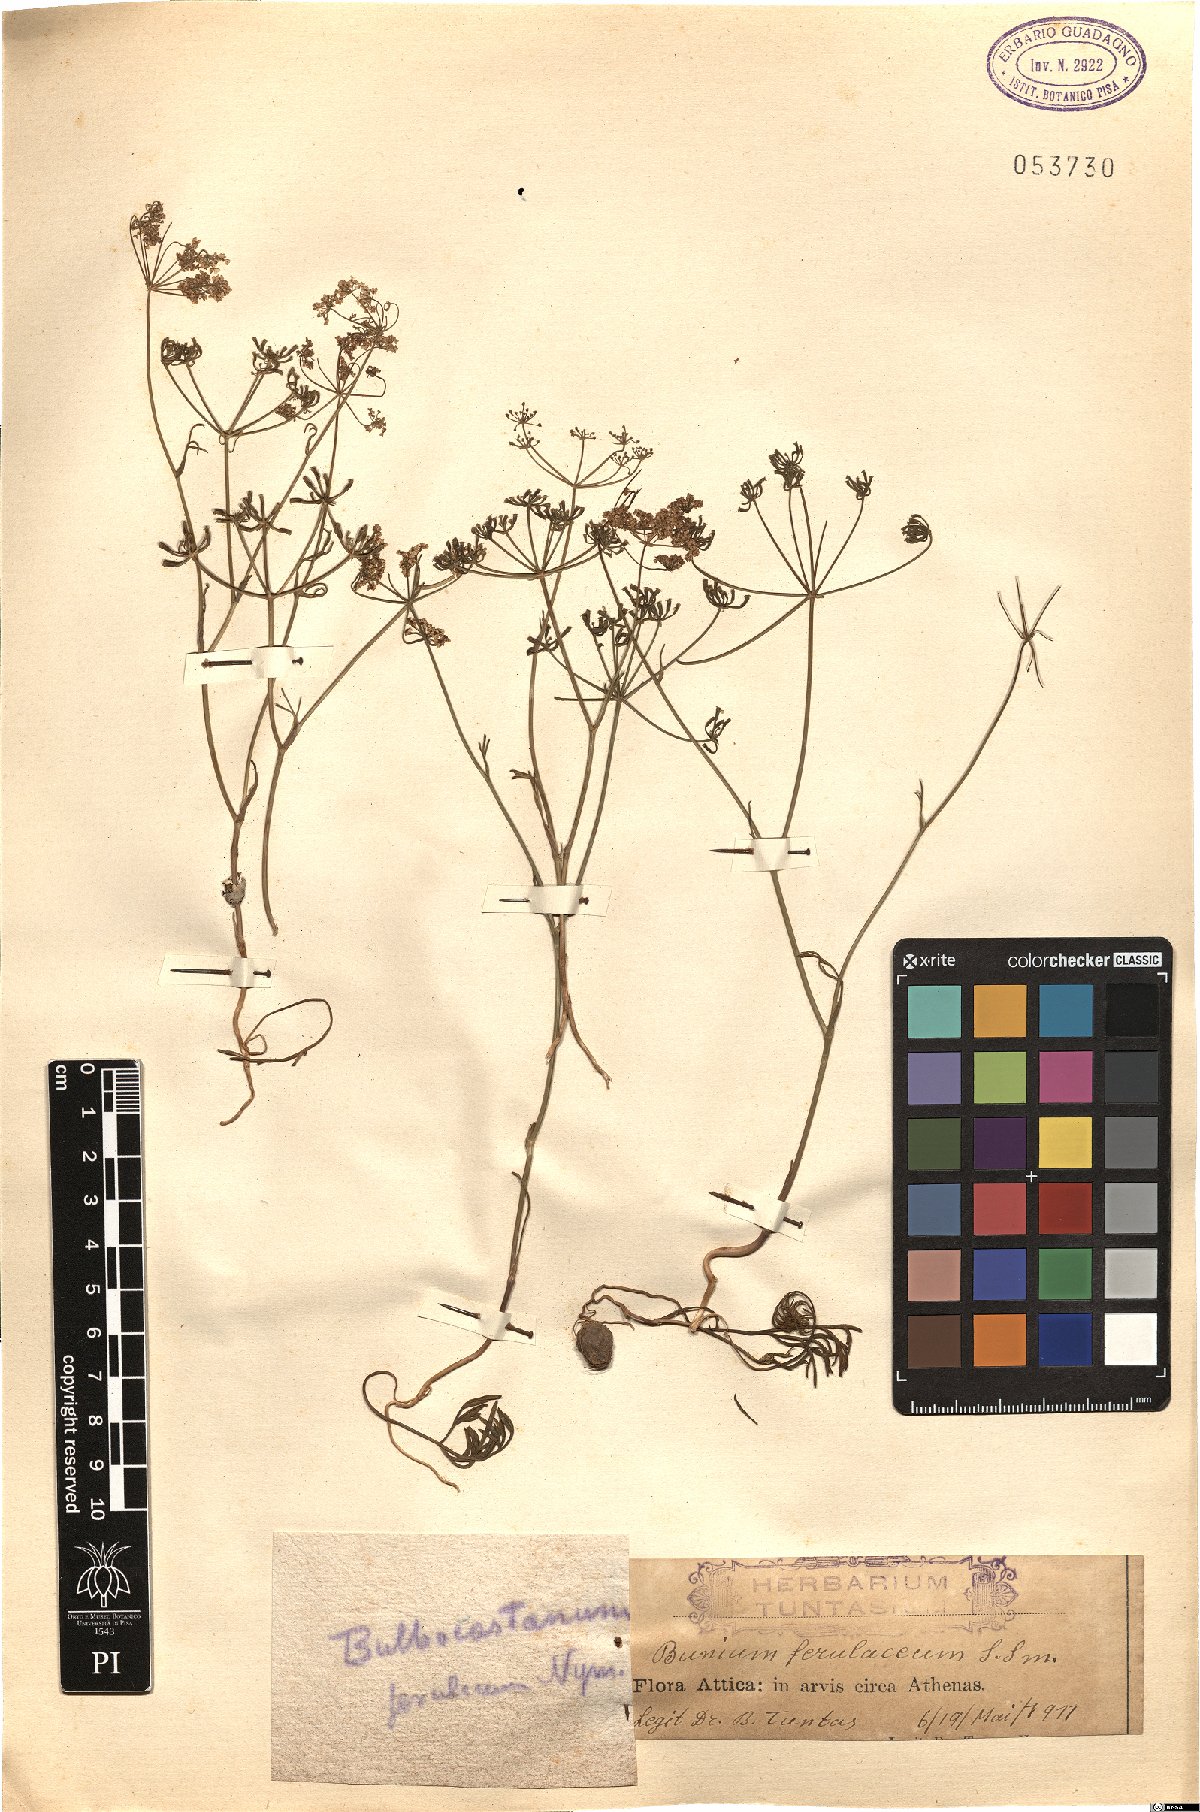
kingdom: Plantae
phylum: Tracheophyta
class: Magnoliopsida
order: Apiales
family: Apiaceae
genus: Bunium
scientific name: Bunium ferulaceum
